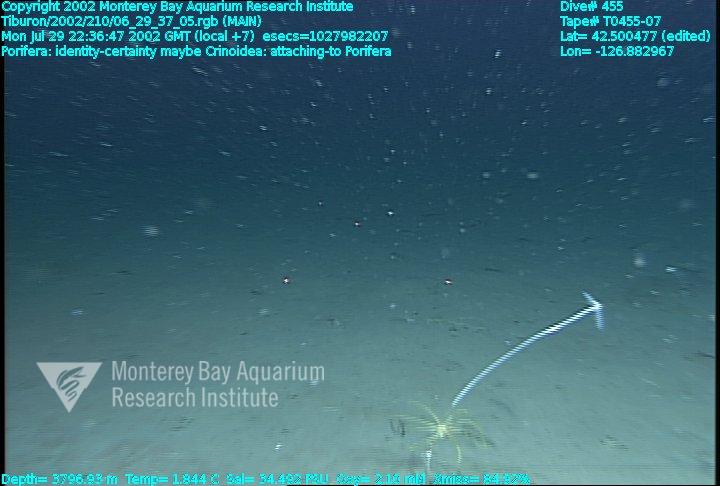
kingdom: Animalia
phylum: Porifera
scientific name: Porifera
